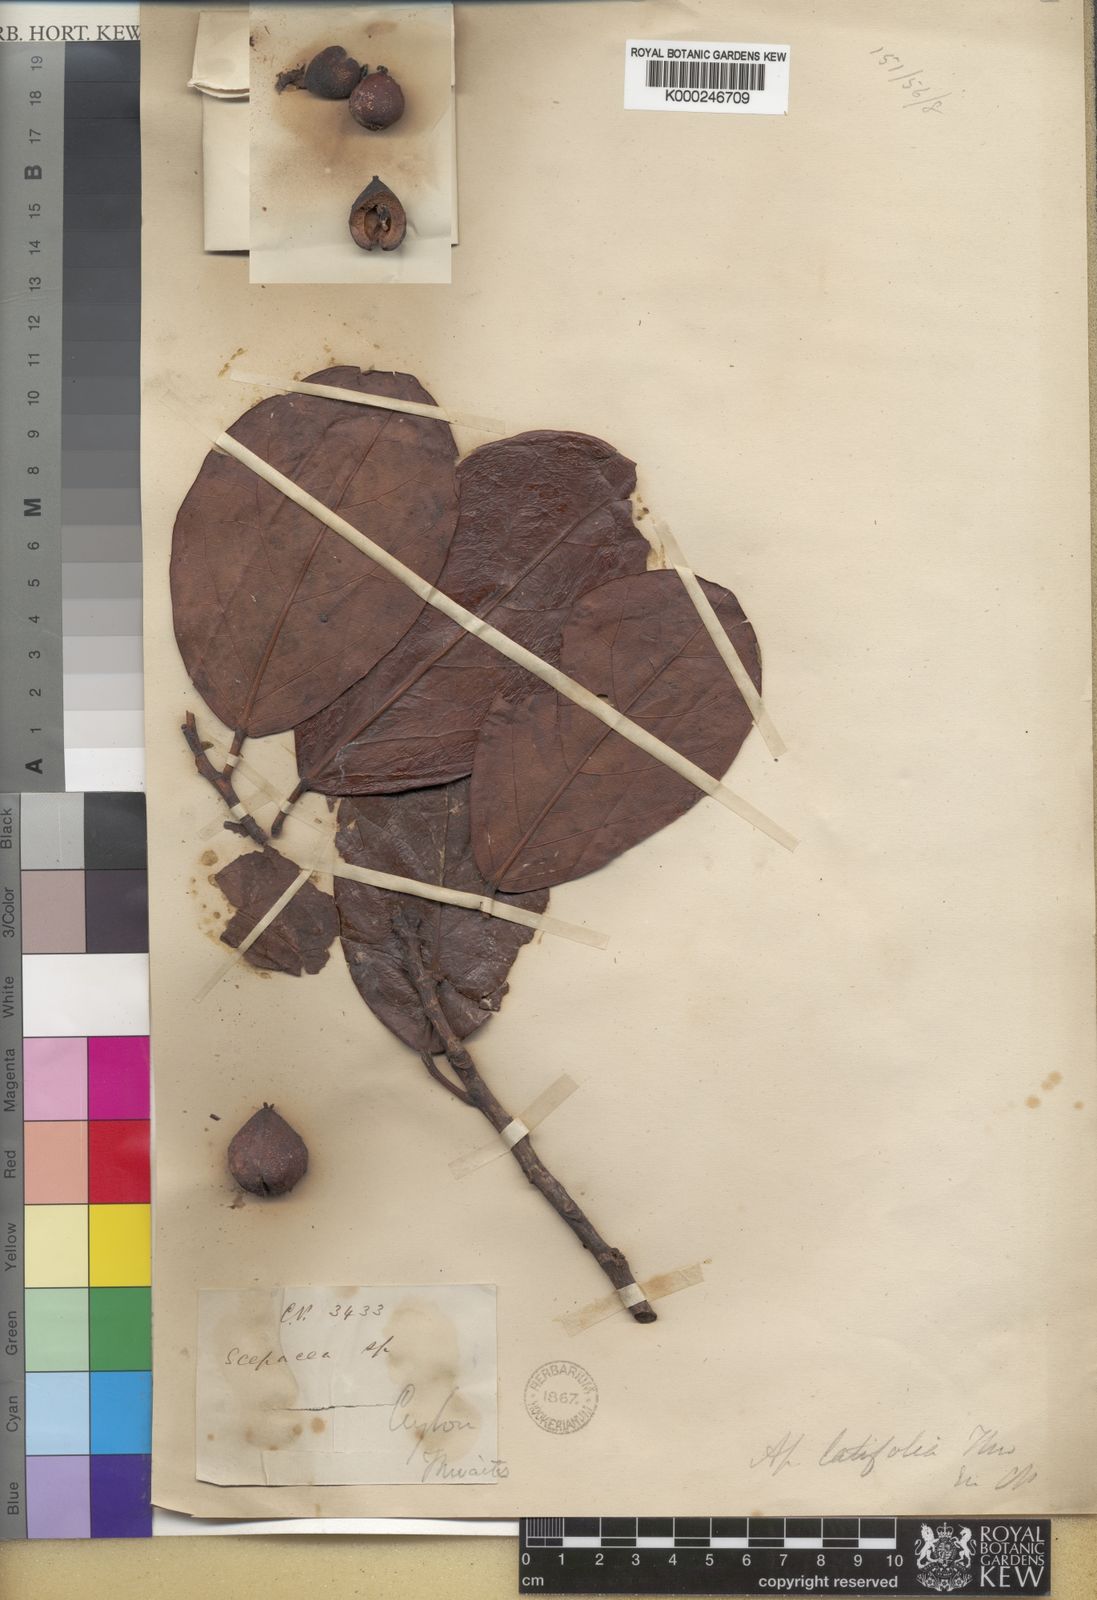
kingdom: Plantae
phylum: Tracheophyta
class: Magnoliopsida
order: Malpighiales
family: Phyllanthaceae
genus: Aporosa
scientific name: Aporosa latifolia
